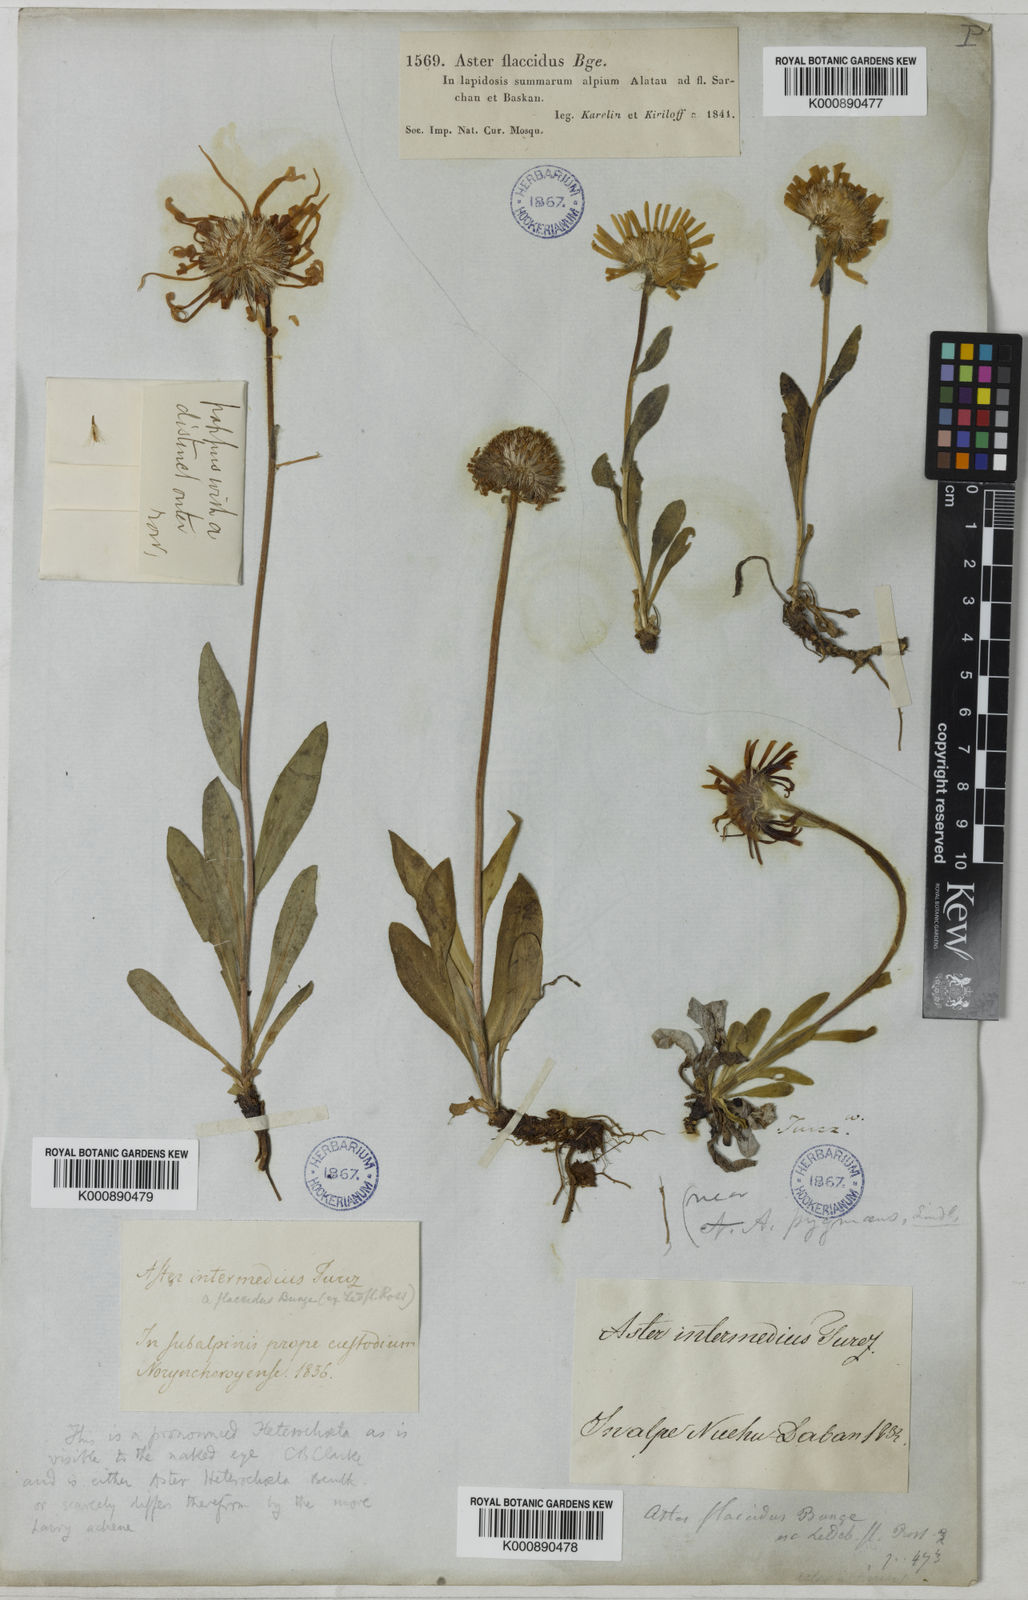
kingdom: Plantae
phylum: Tracheophyta
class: Magnoliopsida
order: Asterales
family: Asteraceae
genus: Tibetiodes
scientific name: Tibetiodes flaccida
